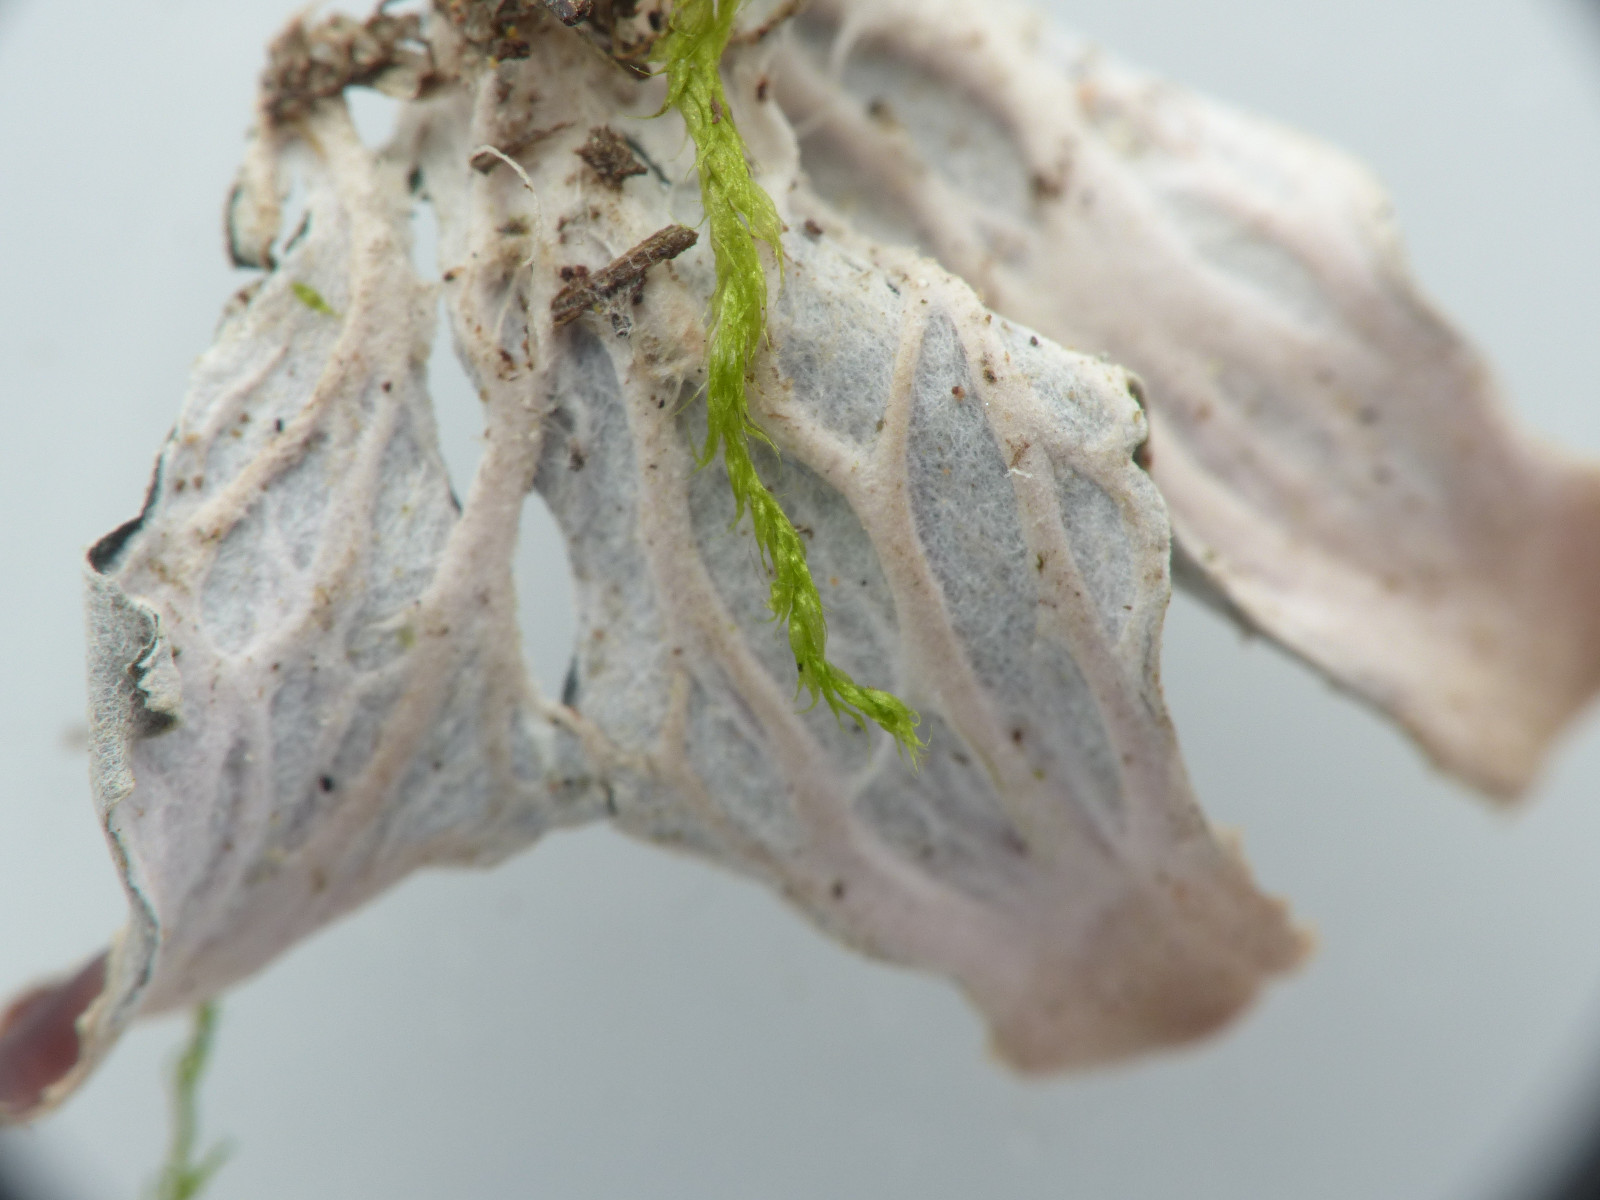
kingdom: Fungi
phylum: Ascomycota
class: Lecanoromycetes
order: Peltigerales
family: Peltigeraceae
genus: Peltigera
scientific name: Peltigera didactyla
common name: liden skjoldlav
